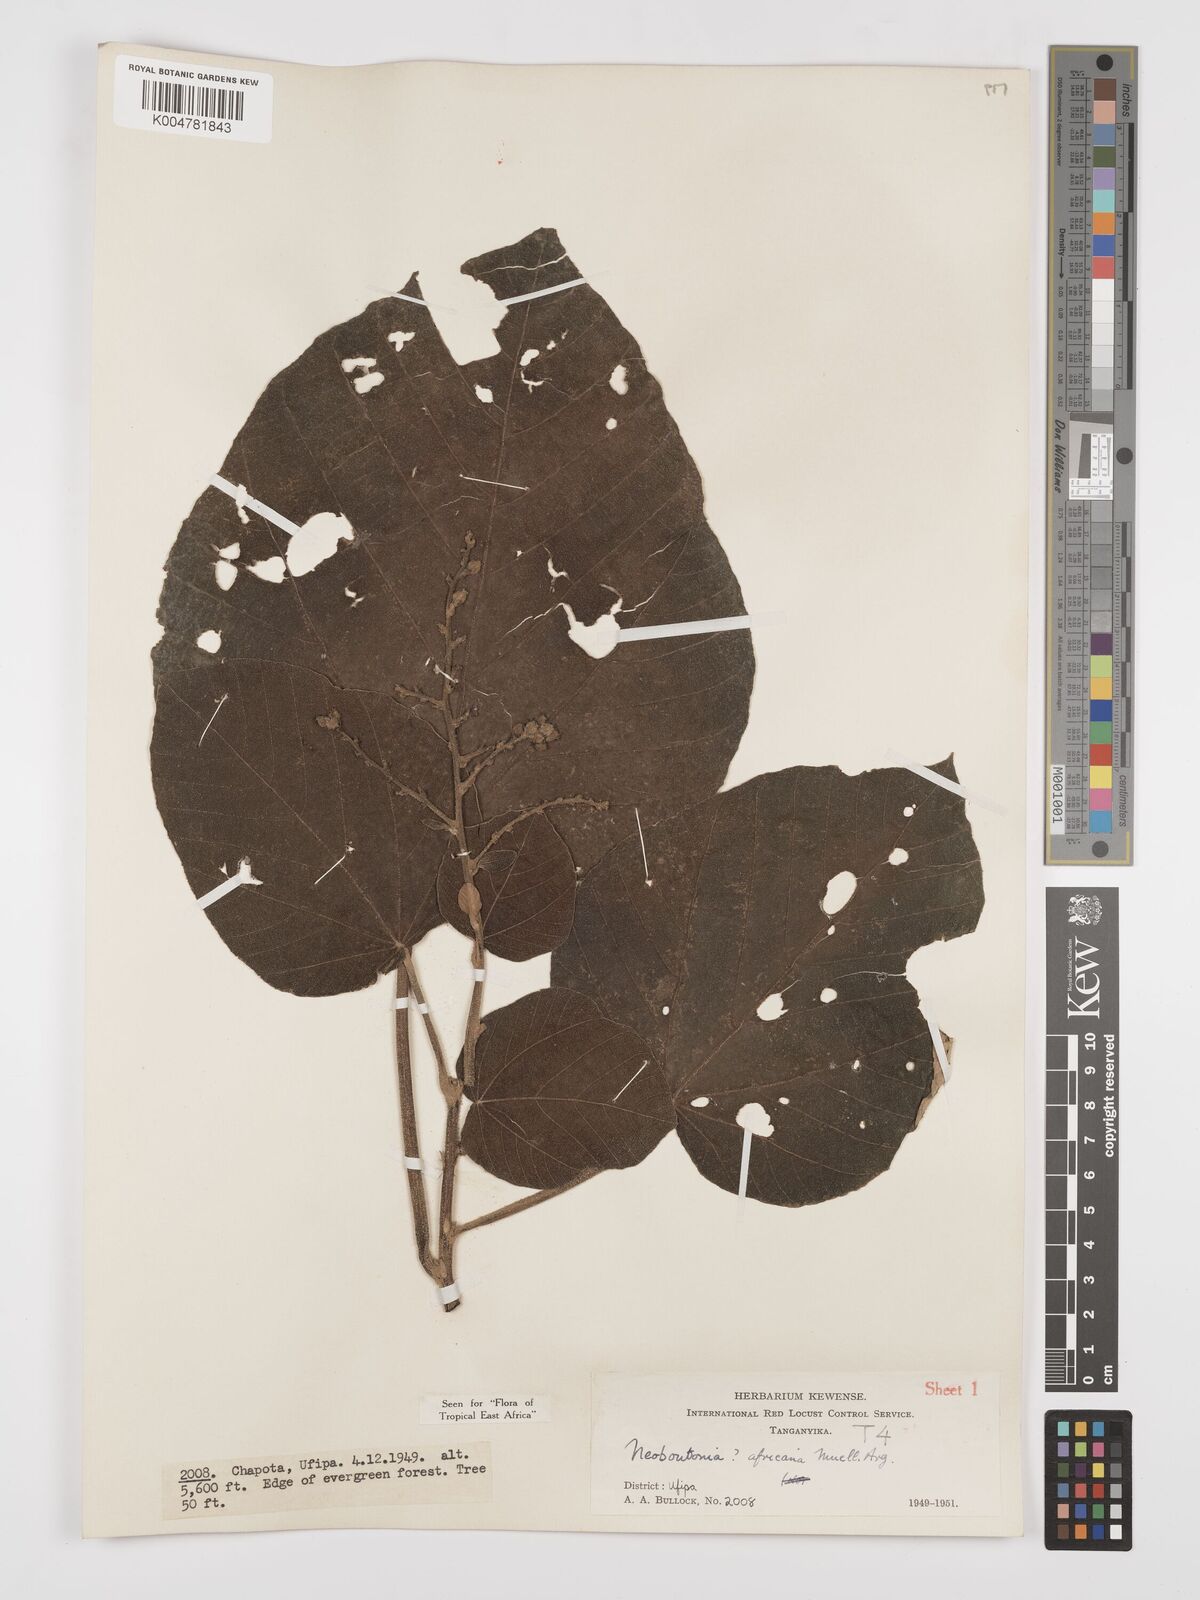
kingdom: Plantae
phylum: Tracheophyta
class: Magnoliopsida
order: Malpighiales
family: Euphorbiaceae
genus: Neoboutonia
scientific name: Neoboutonia melleri
